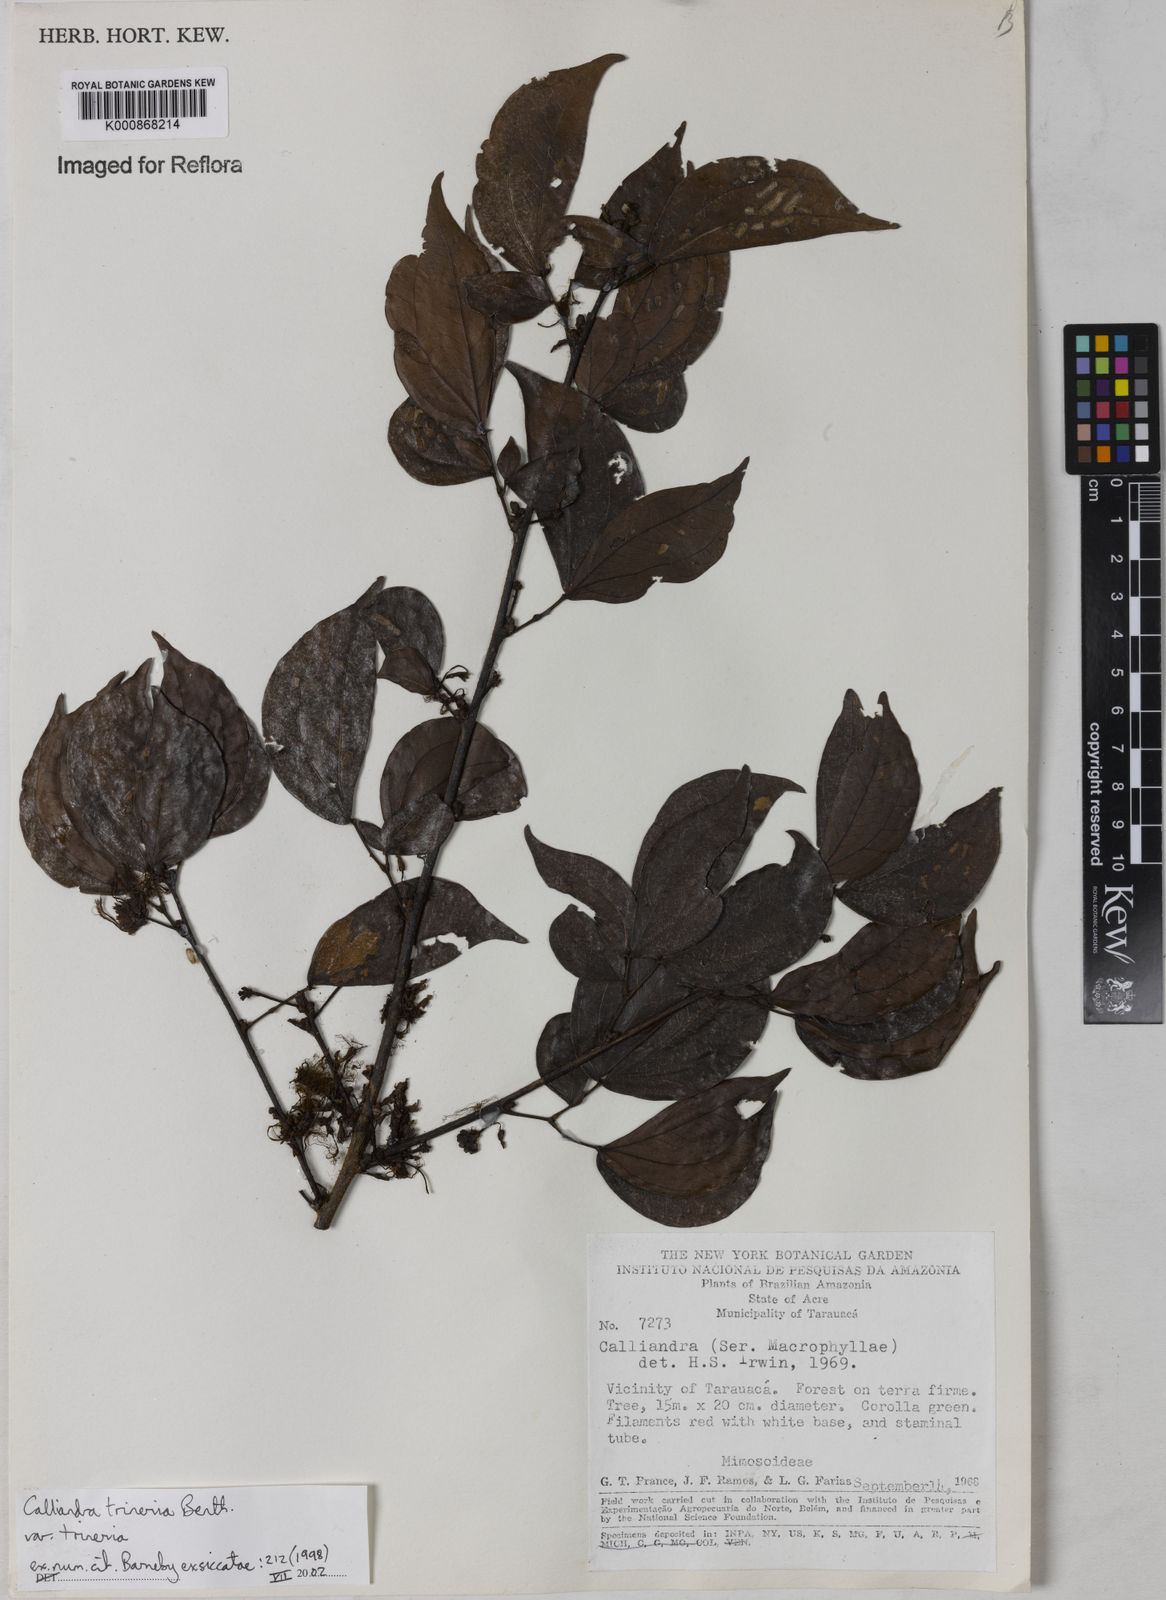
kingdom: Plantae
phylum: Tracheophyta
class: Magnoliopsida
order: Fabales
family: Fabaceae
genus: Calliandra
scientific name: Calliandra trinervia
